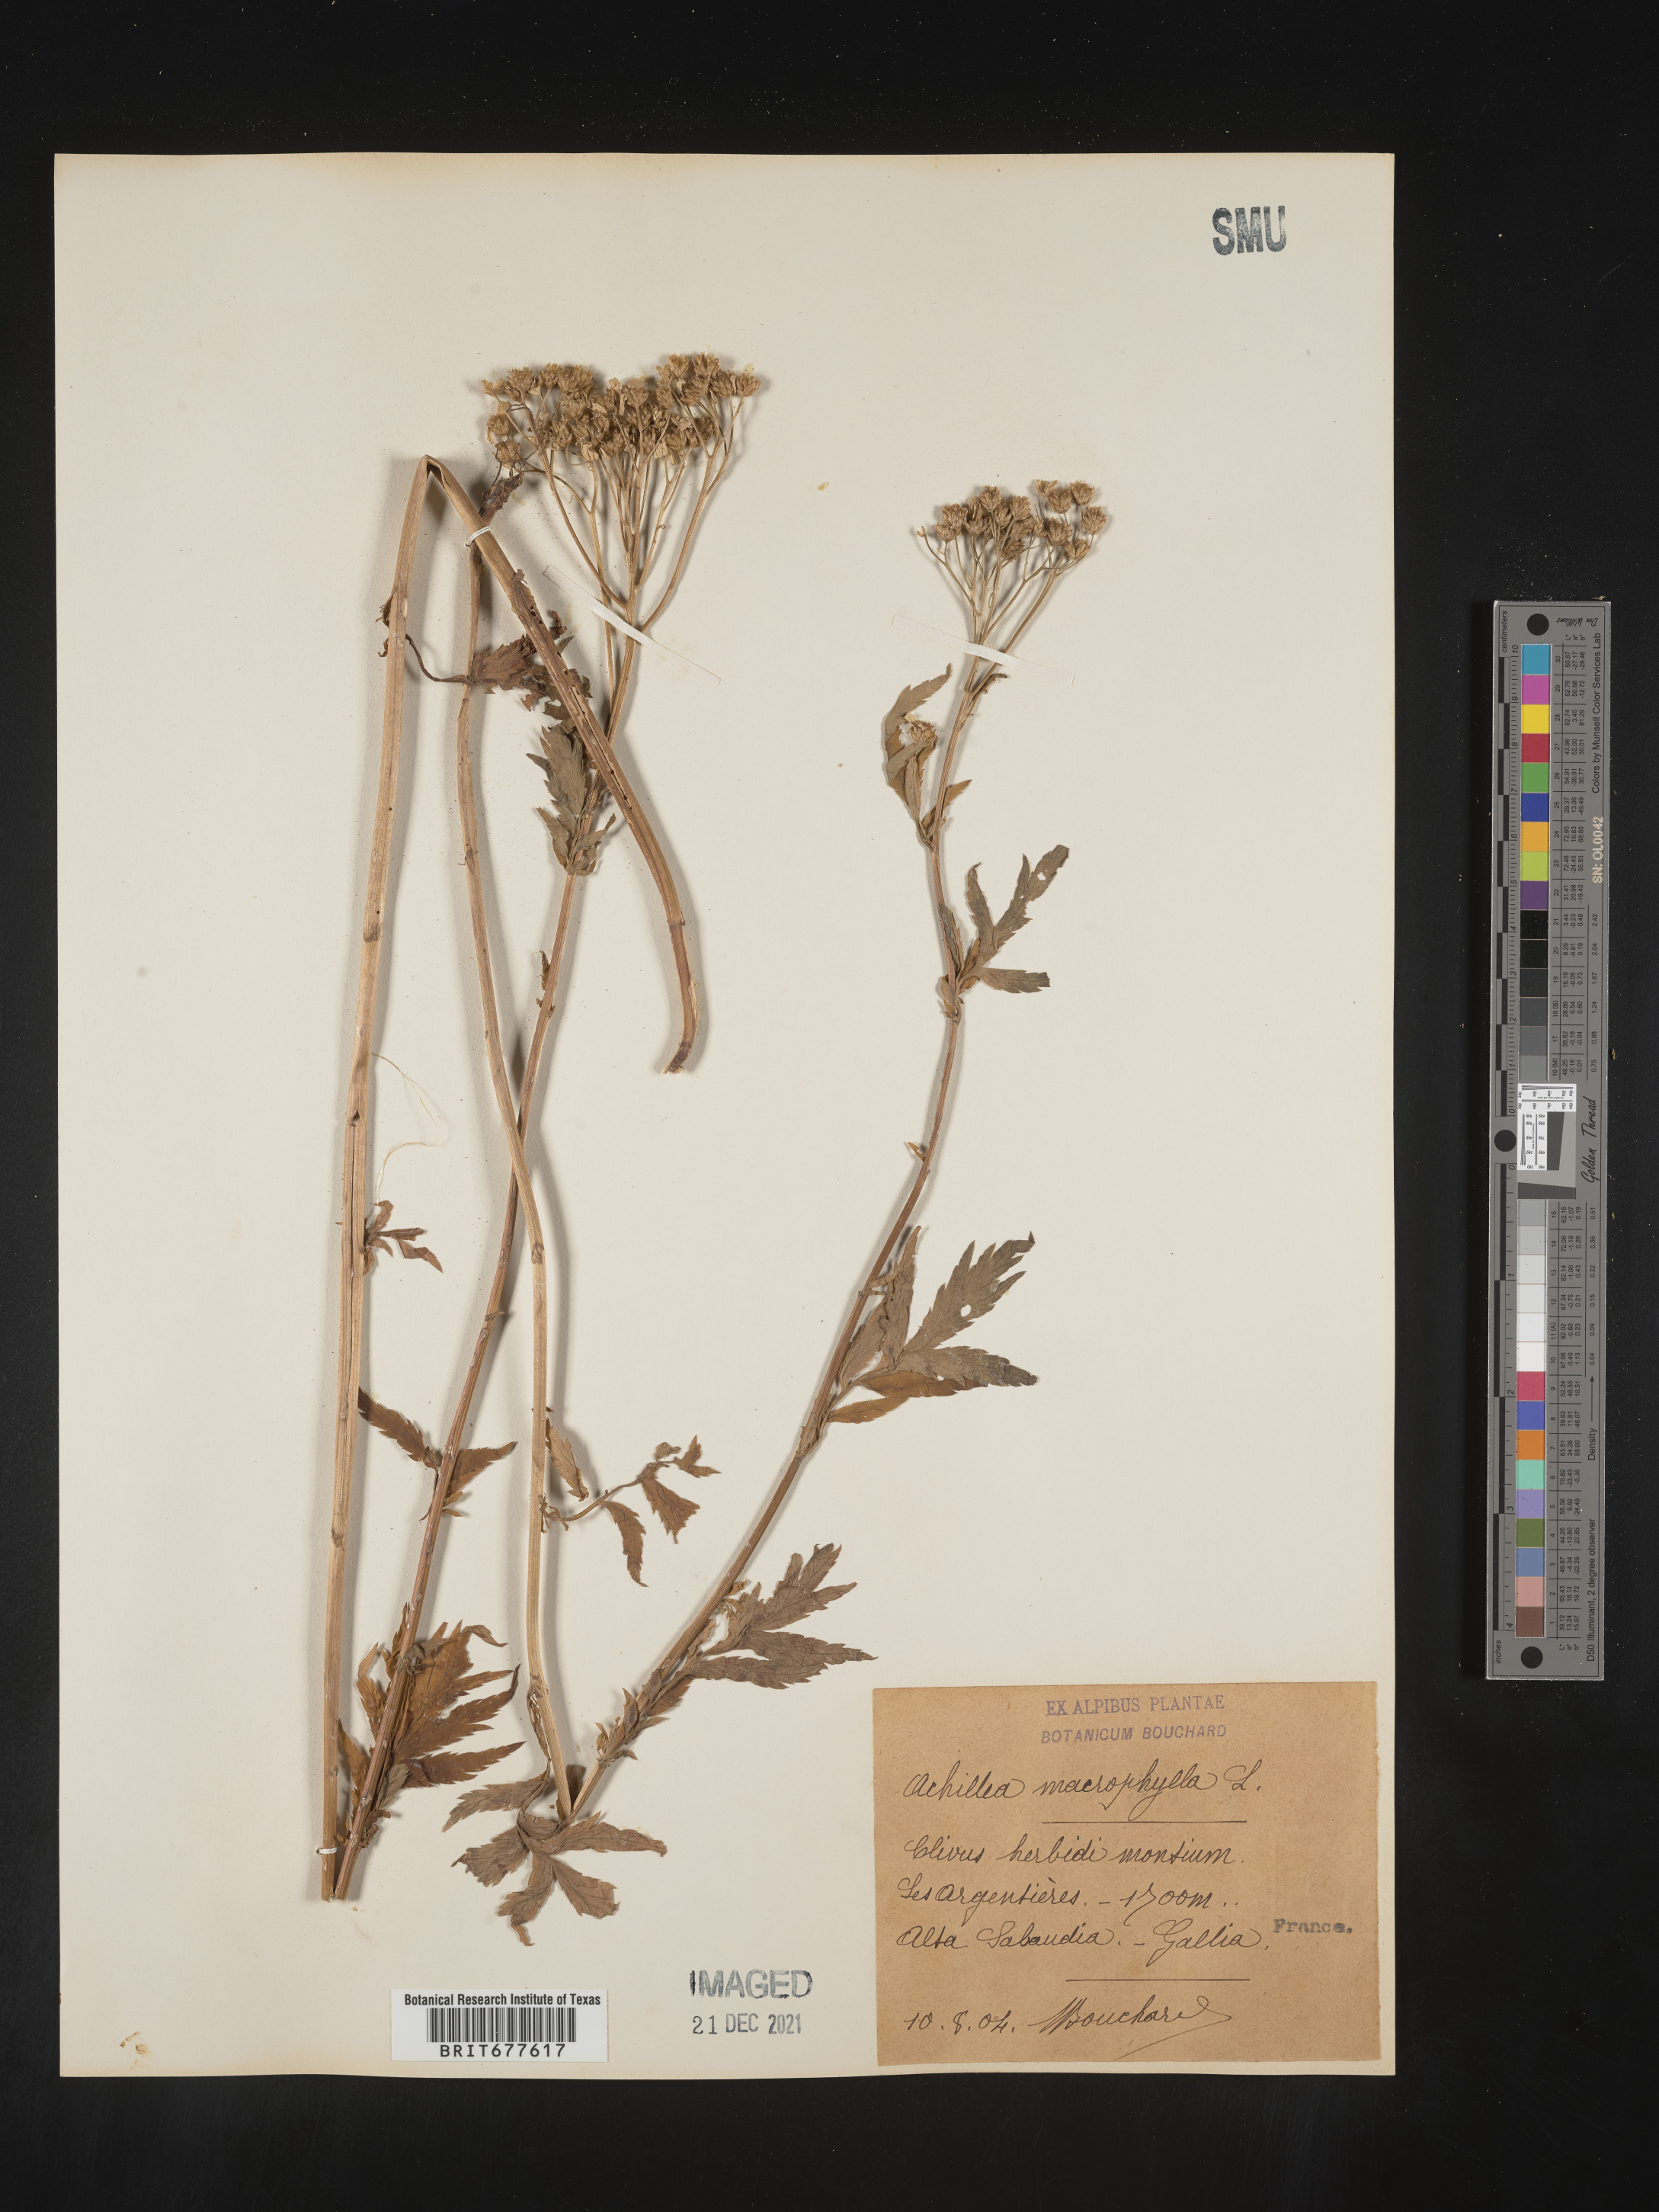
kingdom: Plantae
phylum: Tracheophyta
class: Magnoliopsida
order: Asterales
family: Asteraceae
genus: Achillea
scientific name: Achillea millefolium
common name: Yarrow
